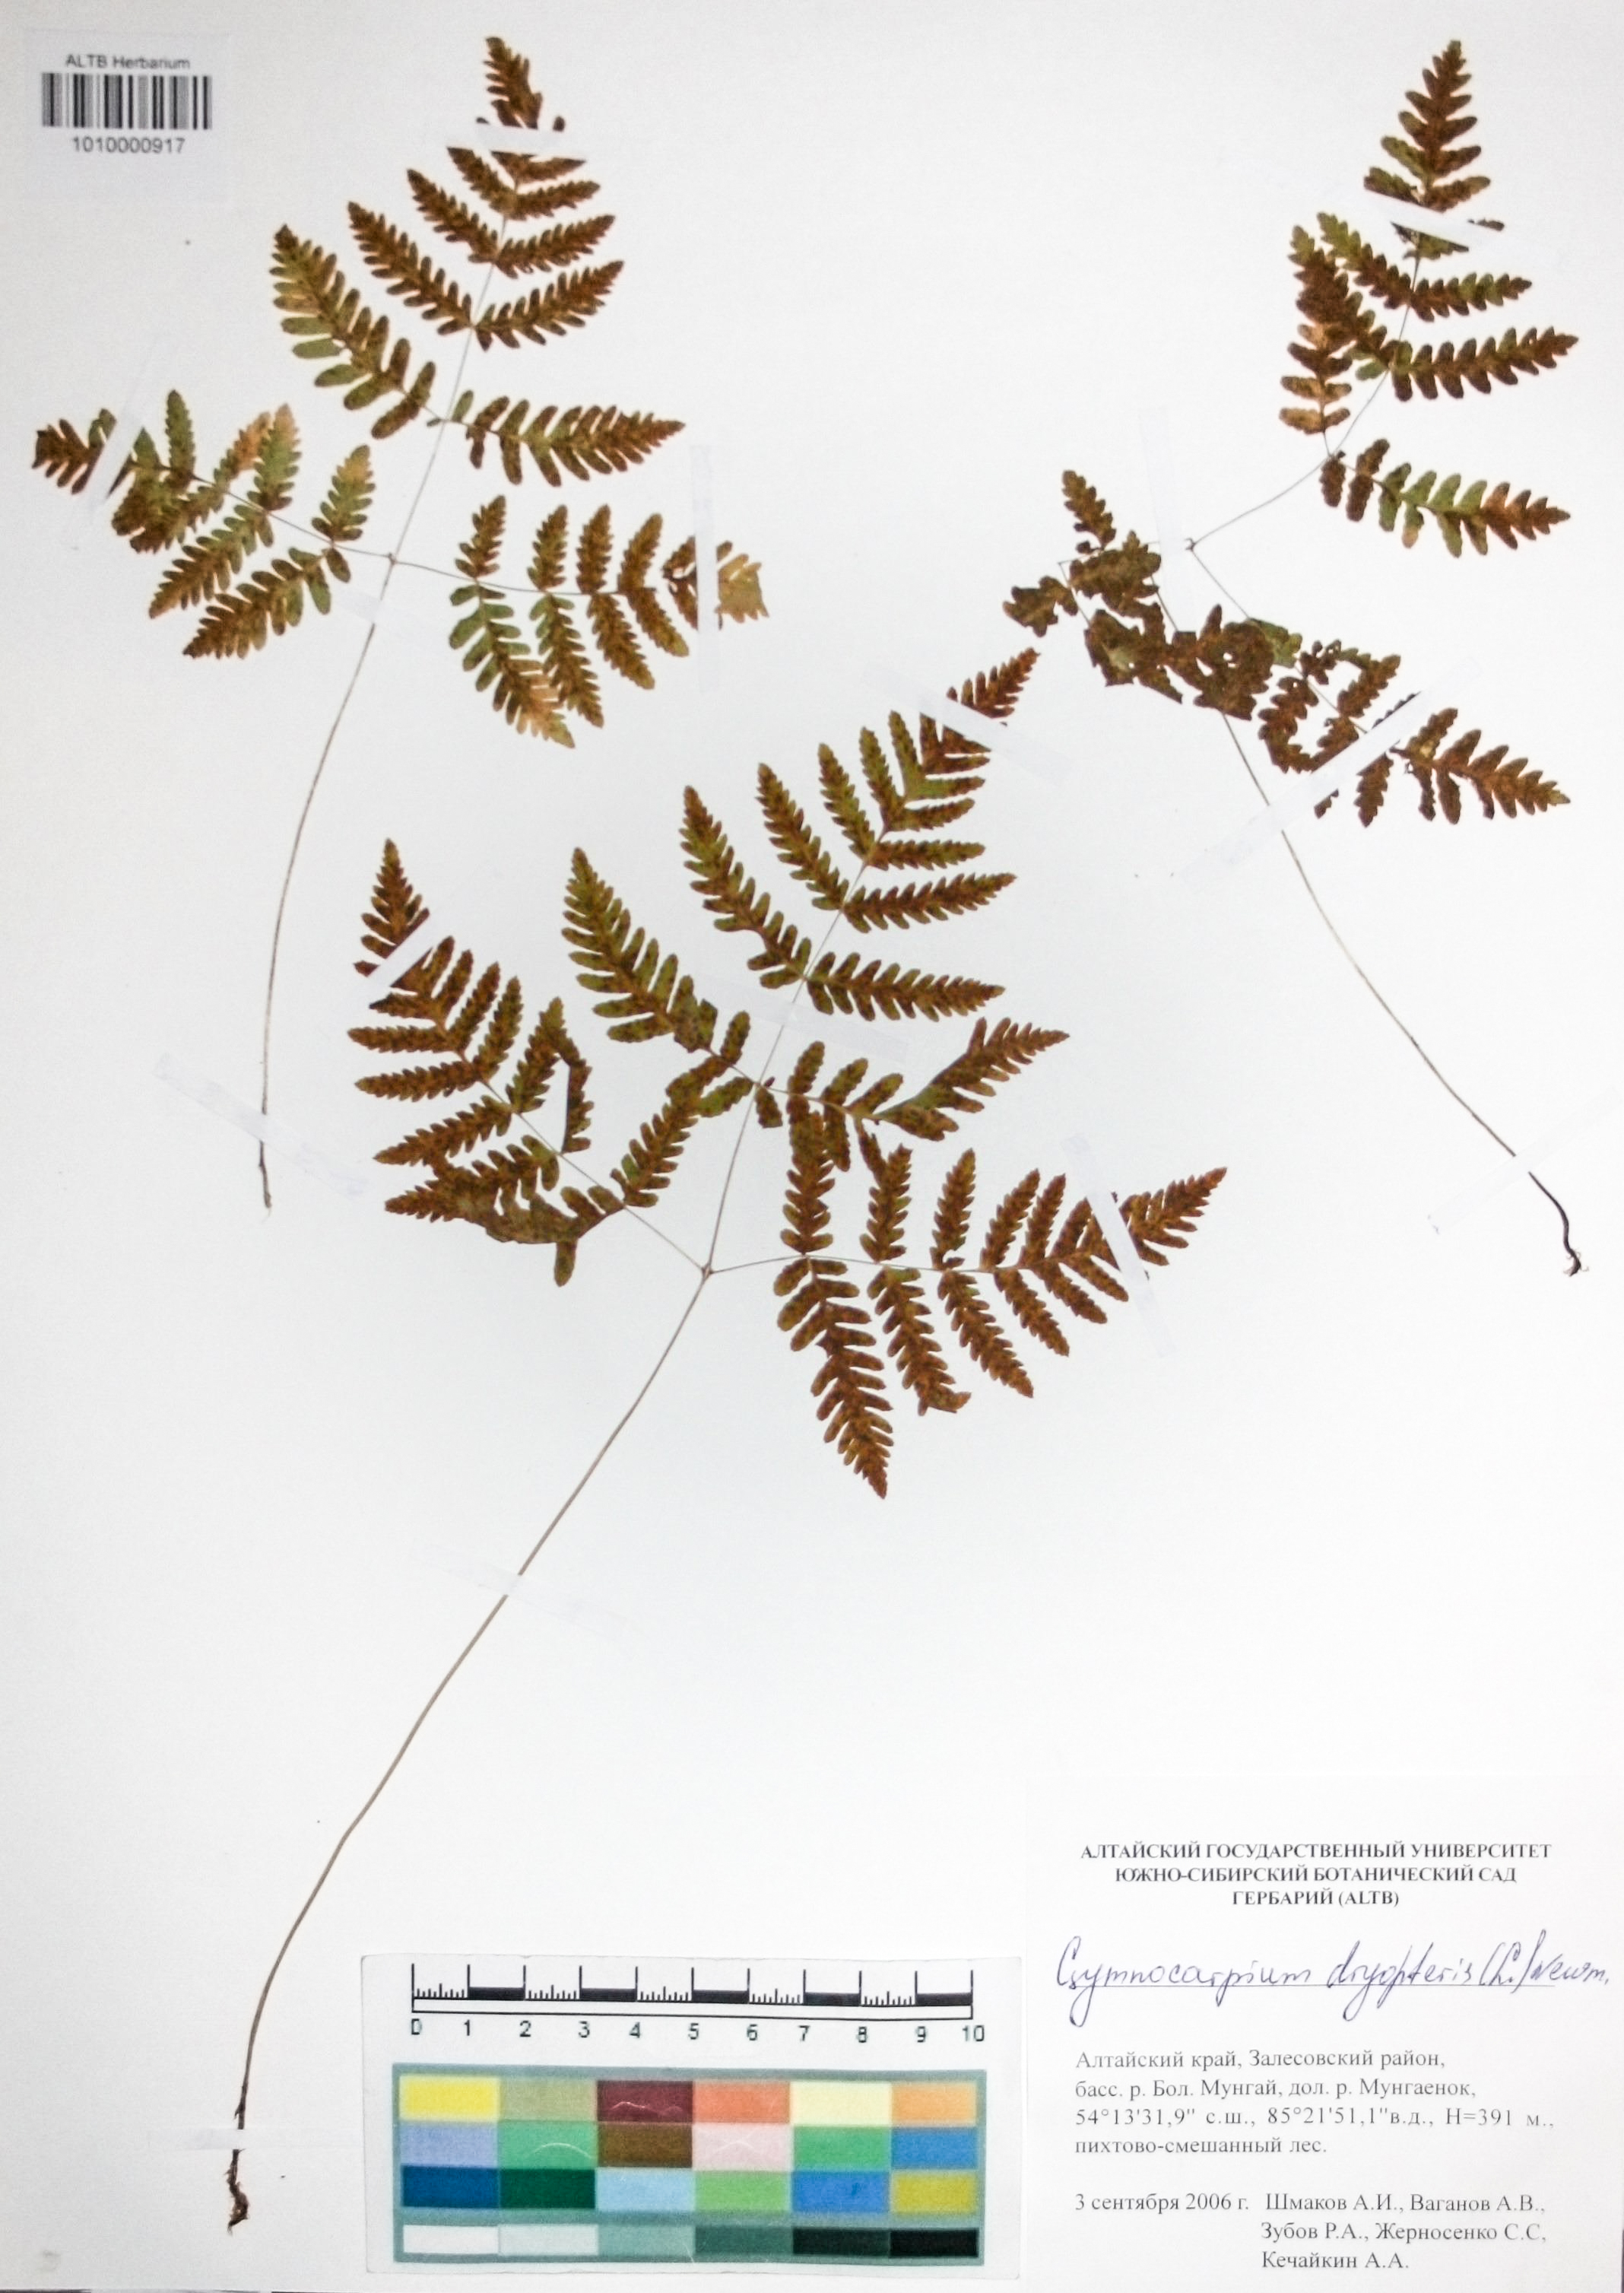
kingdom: Plantae
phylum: Tracheophyta
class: Polypodiopsida
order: Polypodiales
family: Cystopteridaceae
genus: Gymnocarpium
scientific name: Gymnocarpium dryopteris
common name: Oak fern
